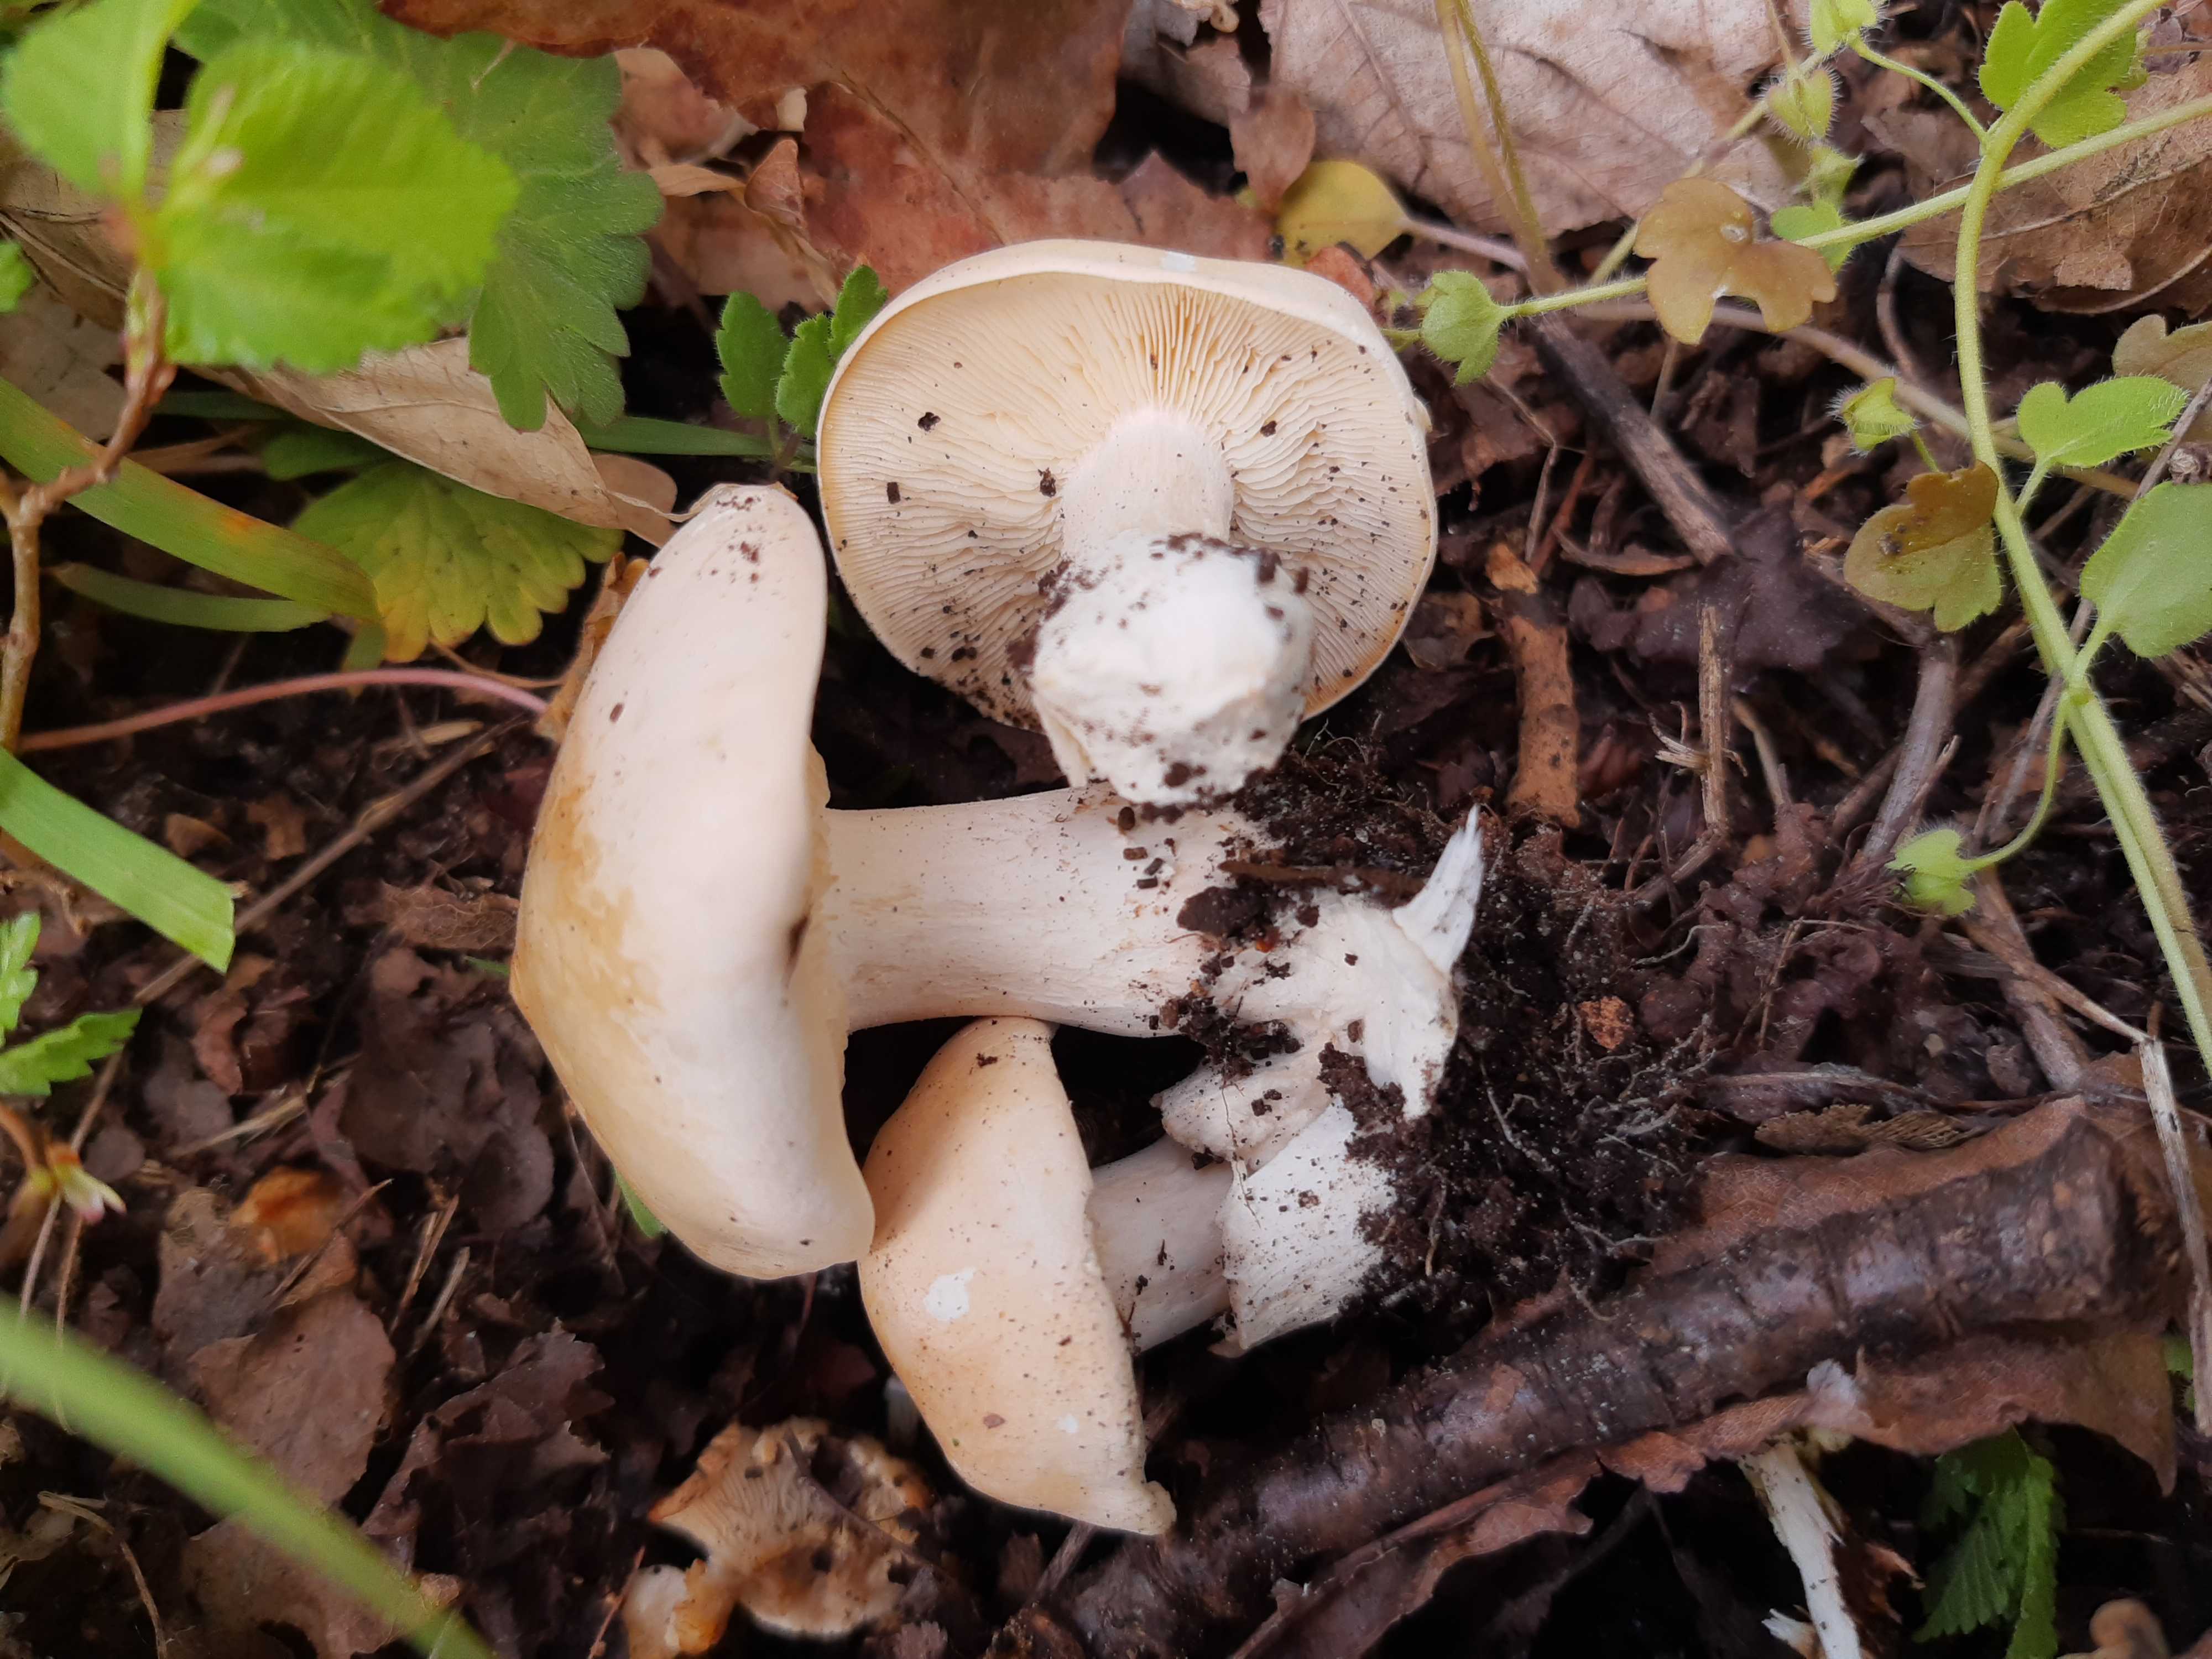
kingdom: Fungi
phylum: Basidiomycota
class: Agaricomycetes
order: Agaricales
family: Lyophyllaceae
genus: Calocybe
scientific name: Calocybe gambosa
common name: vårmusseron
